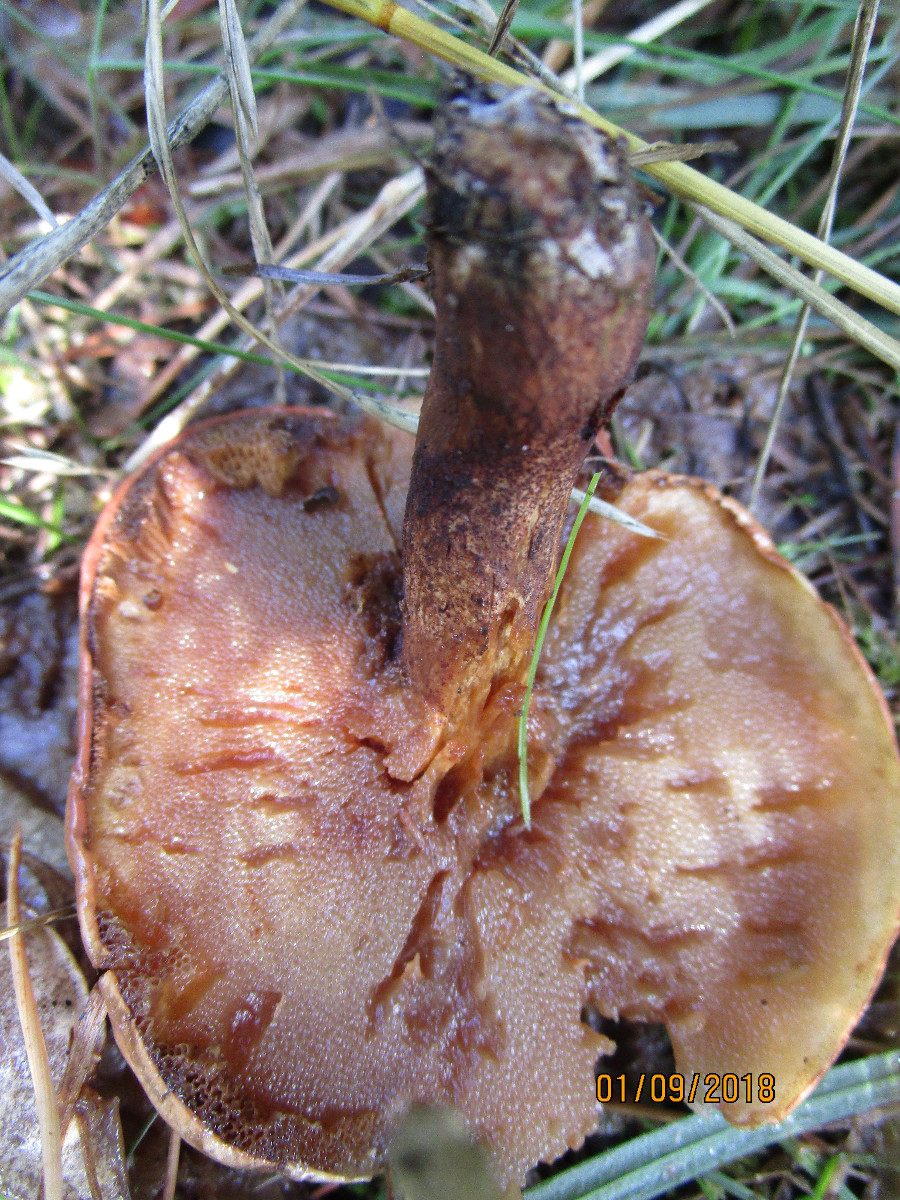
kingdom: Fungi
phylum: Basidiomycota
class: Agaricomycetes
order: Boletales
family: Suillaceae
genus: Suillus
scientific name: Suillus granulatus
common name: kornet slimrørhat
